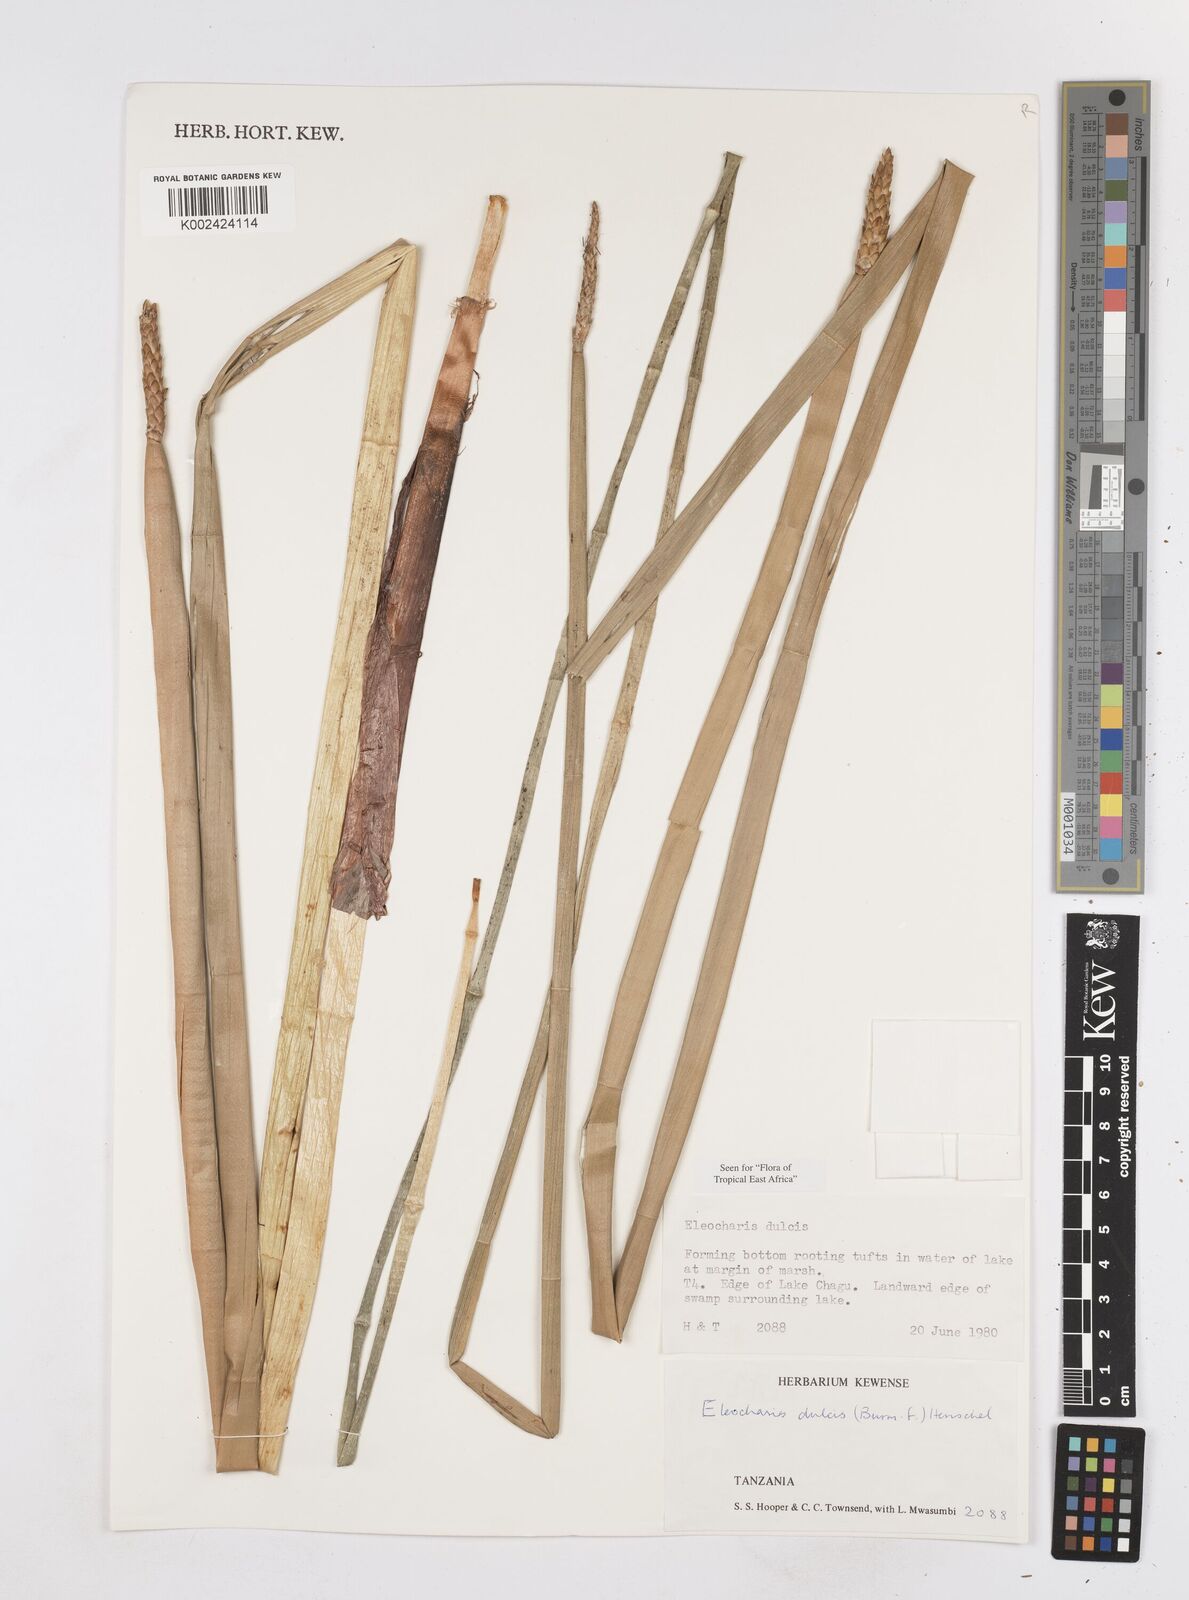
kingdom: Plantae
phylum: Tracheophyta
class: Liliopsida
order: Poales
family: Cyperaceae
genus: Eleocharis
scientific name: Eleocharis dulcis
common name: Chinese water chestnut
